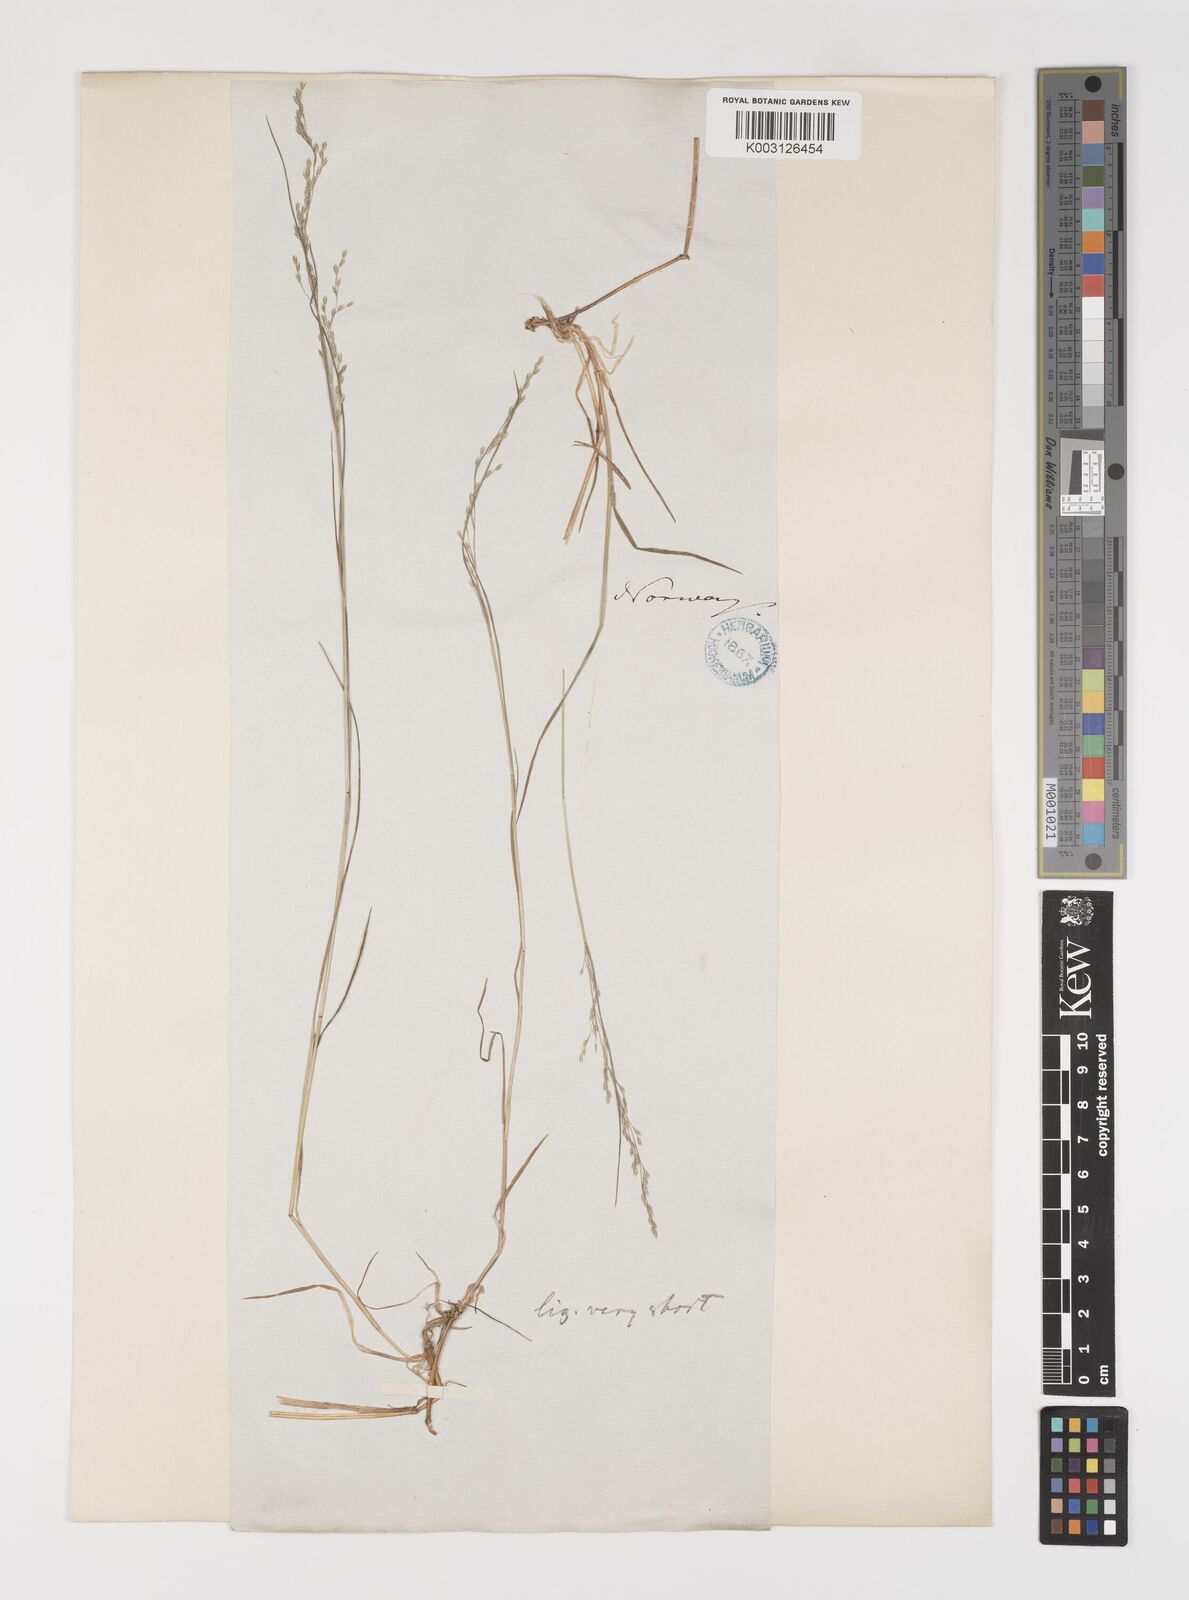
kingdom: Plantae
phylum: Tracheophyta
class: Liliopsida
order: Poales
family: Poaceae
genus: Poa
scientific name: Poa nemoralis
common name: Wood bluegrass
